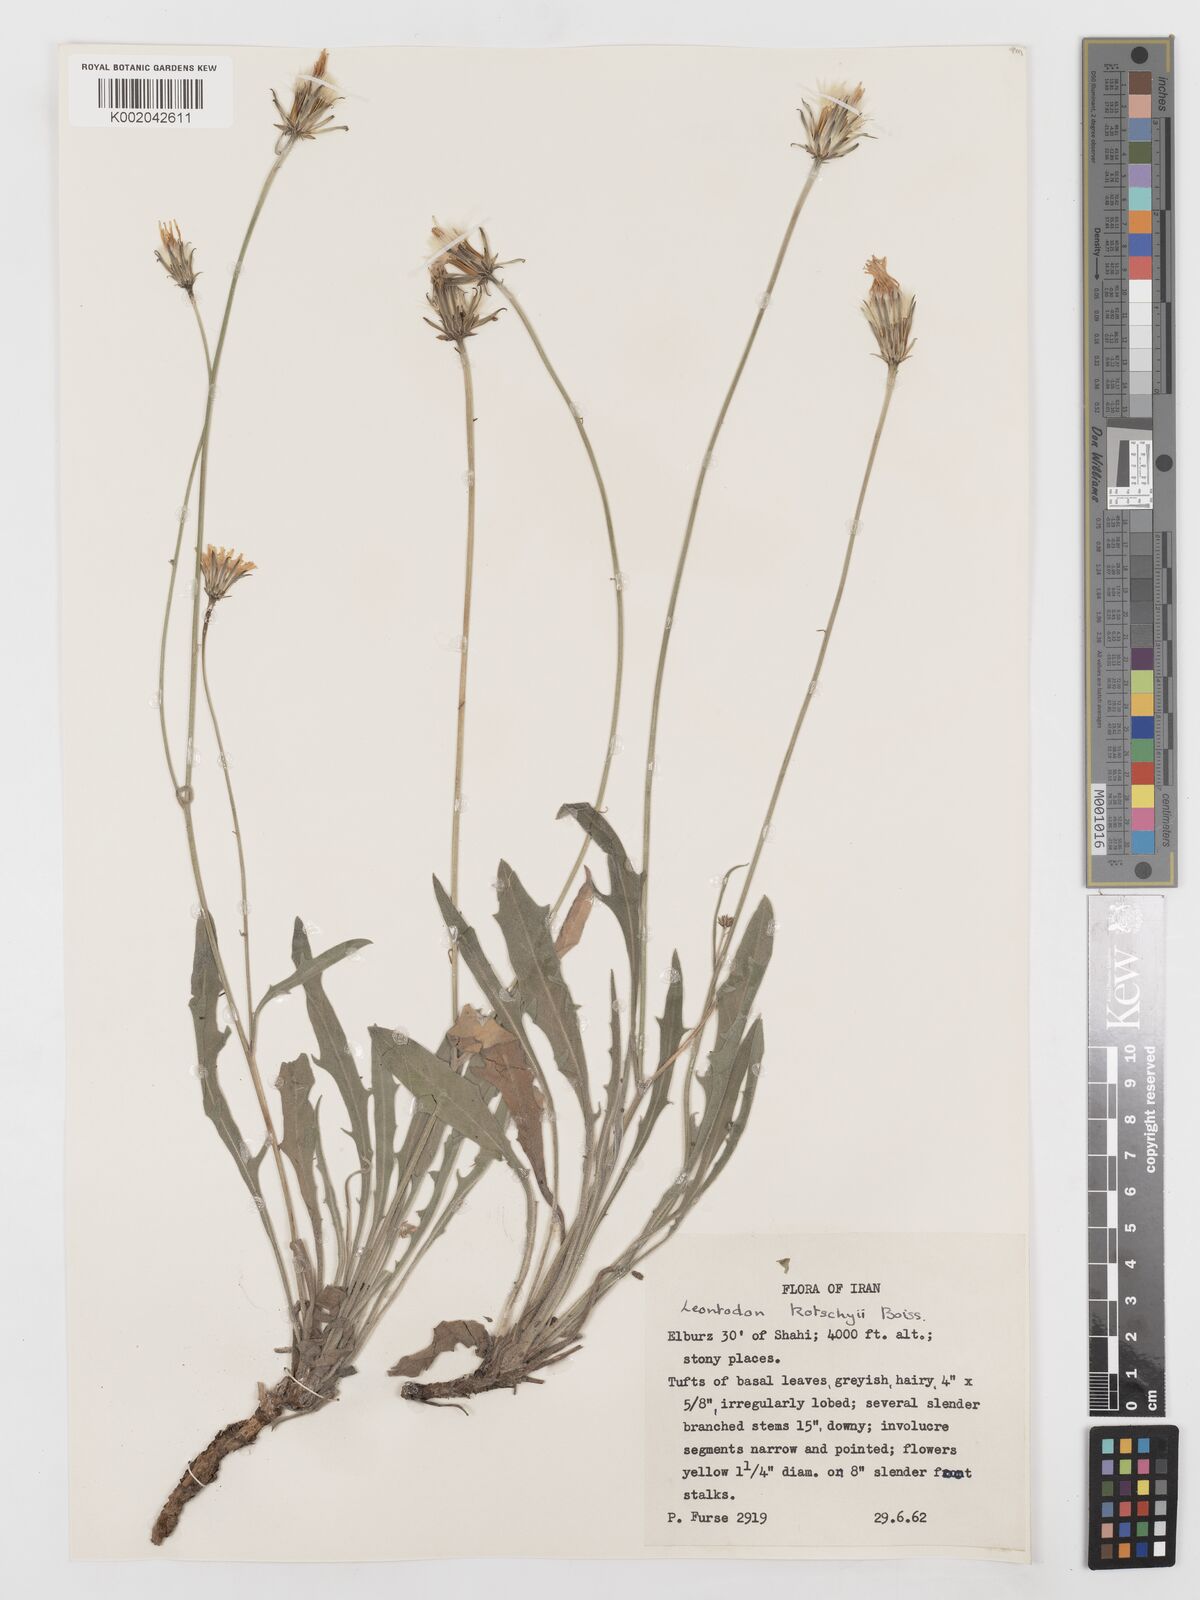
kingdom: Plantae
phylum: Tracheophyta
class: Magnoliopsida
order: Asterales
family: Asteraceae
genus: Leontodon
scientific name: Leontodon
